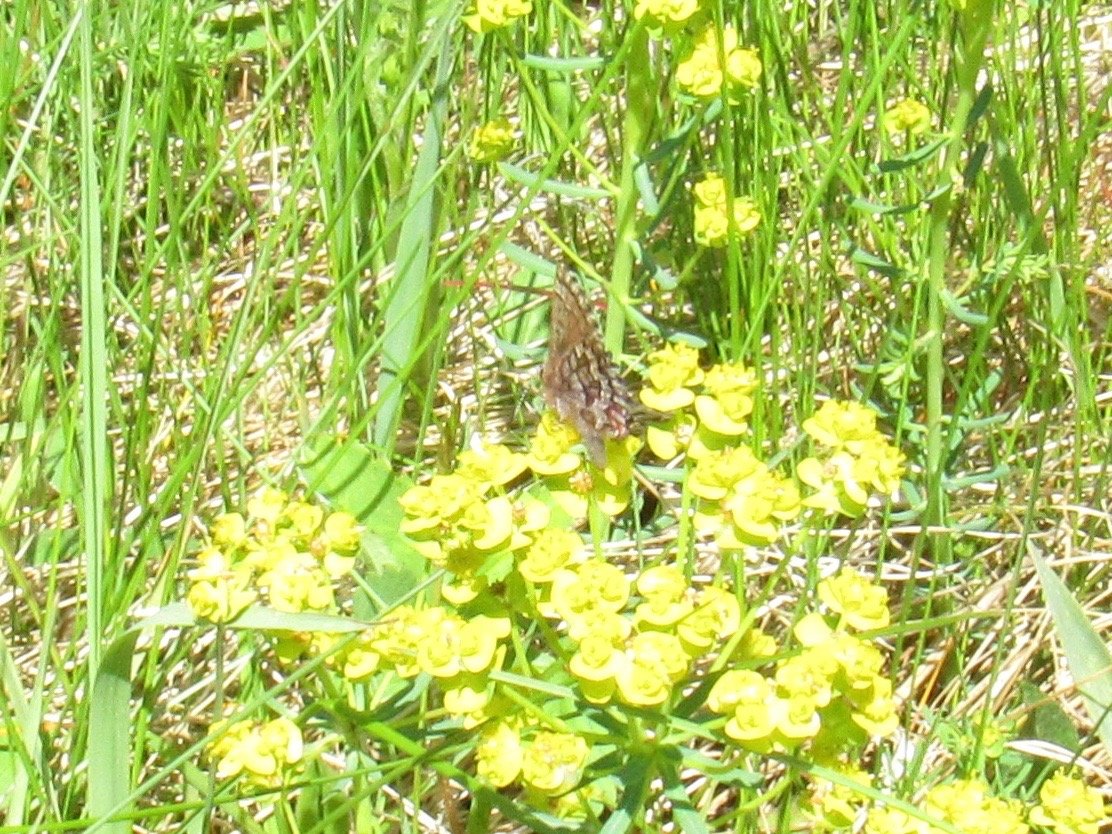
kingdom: Animalia
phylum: Arthropoda
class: Insecta
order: Lepidoptera
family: Lycaenidae
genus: Incisalia
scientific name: Incisalia niphon
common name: Eastern Pine Elfin
